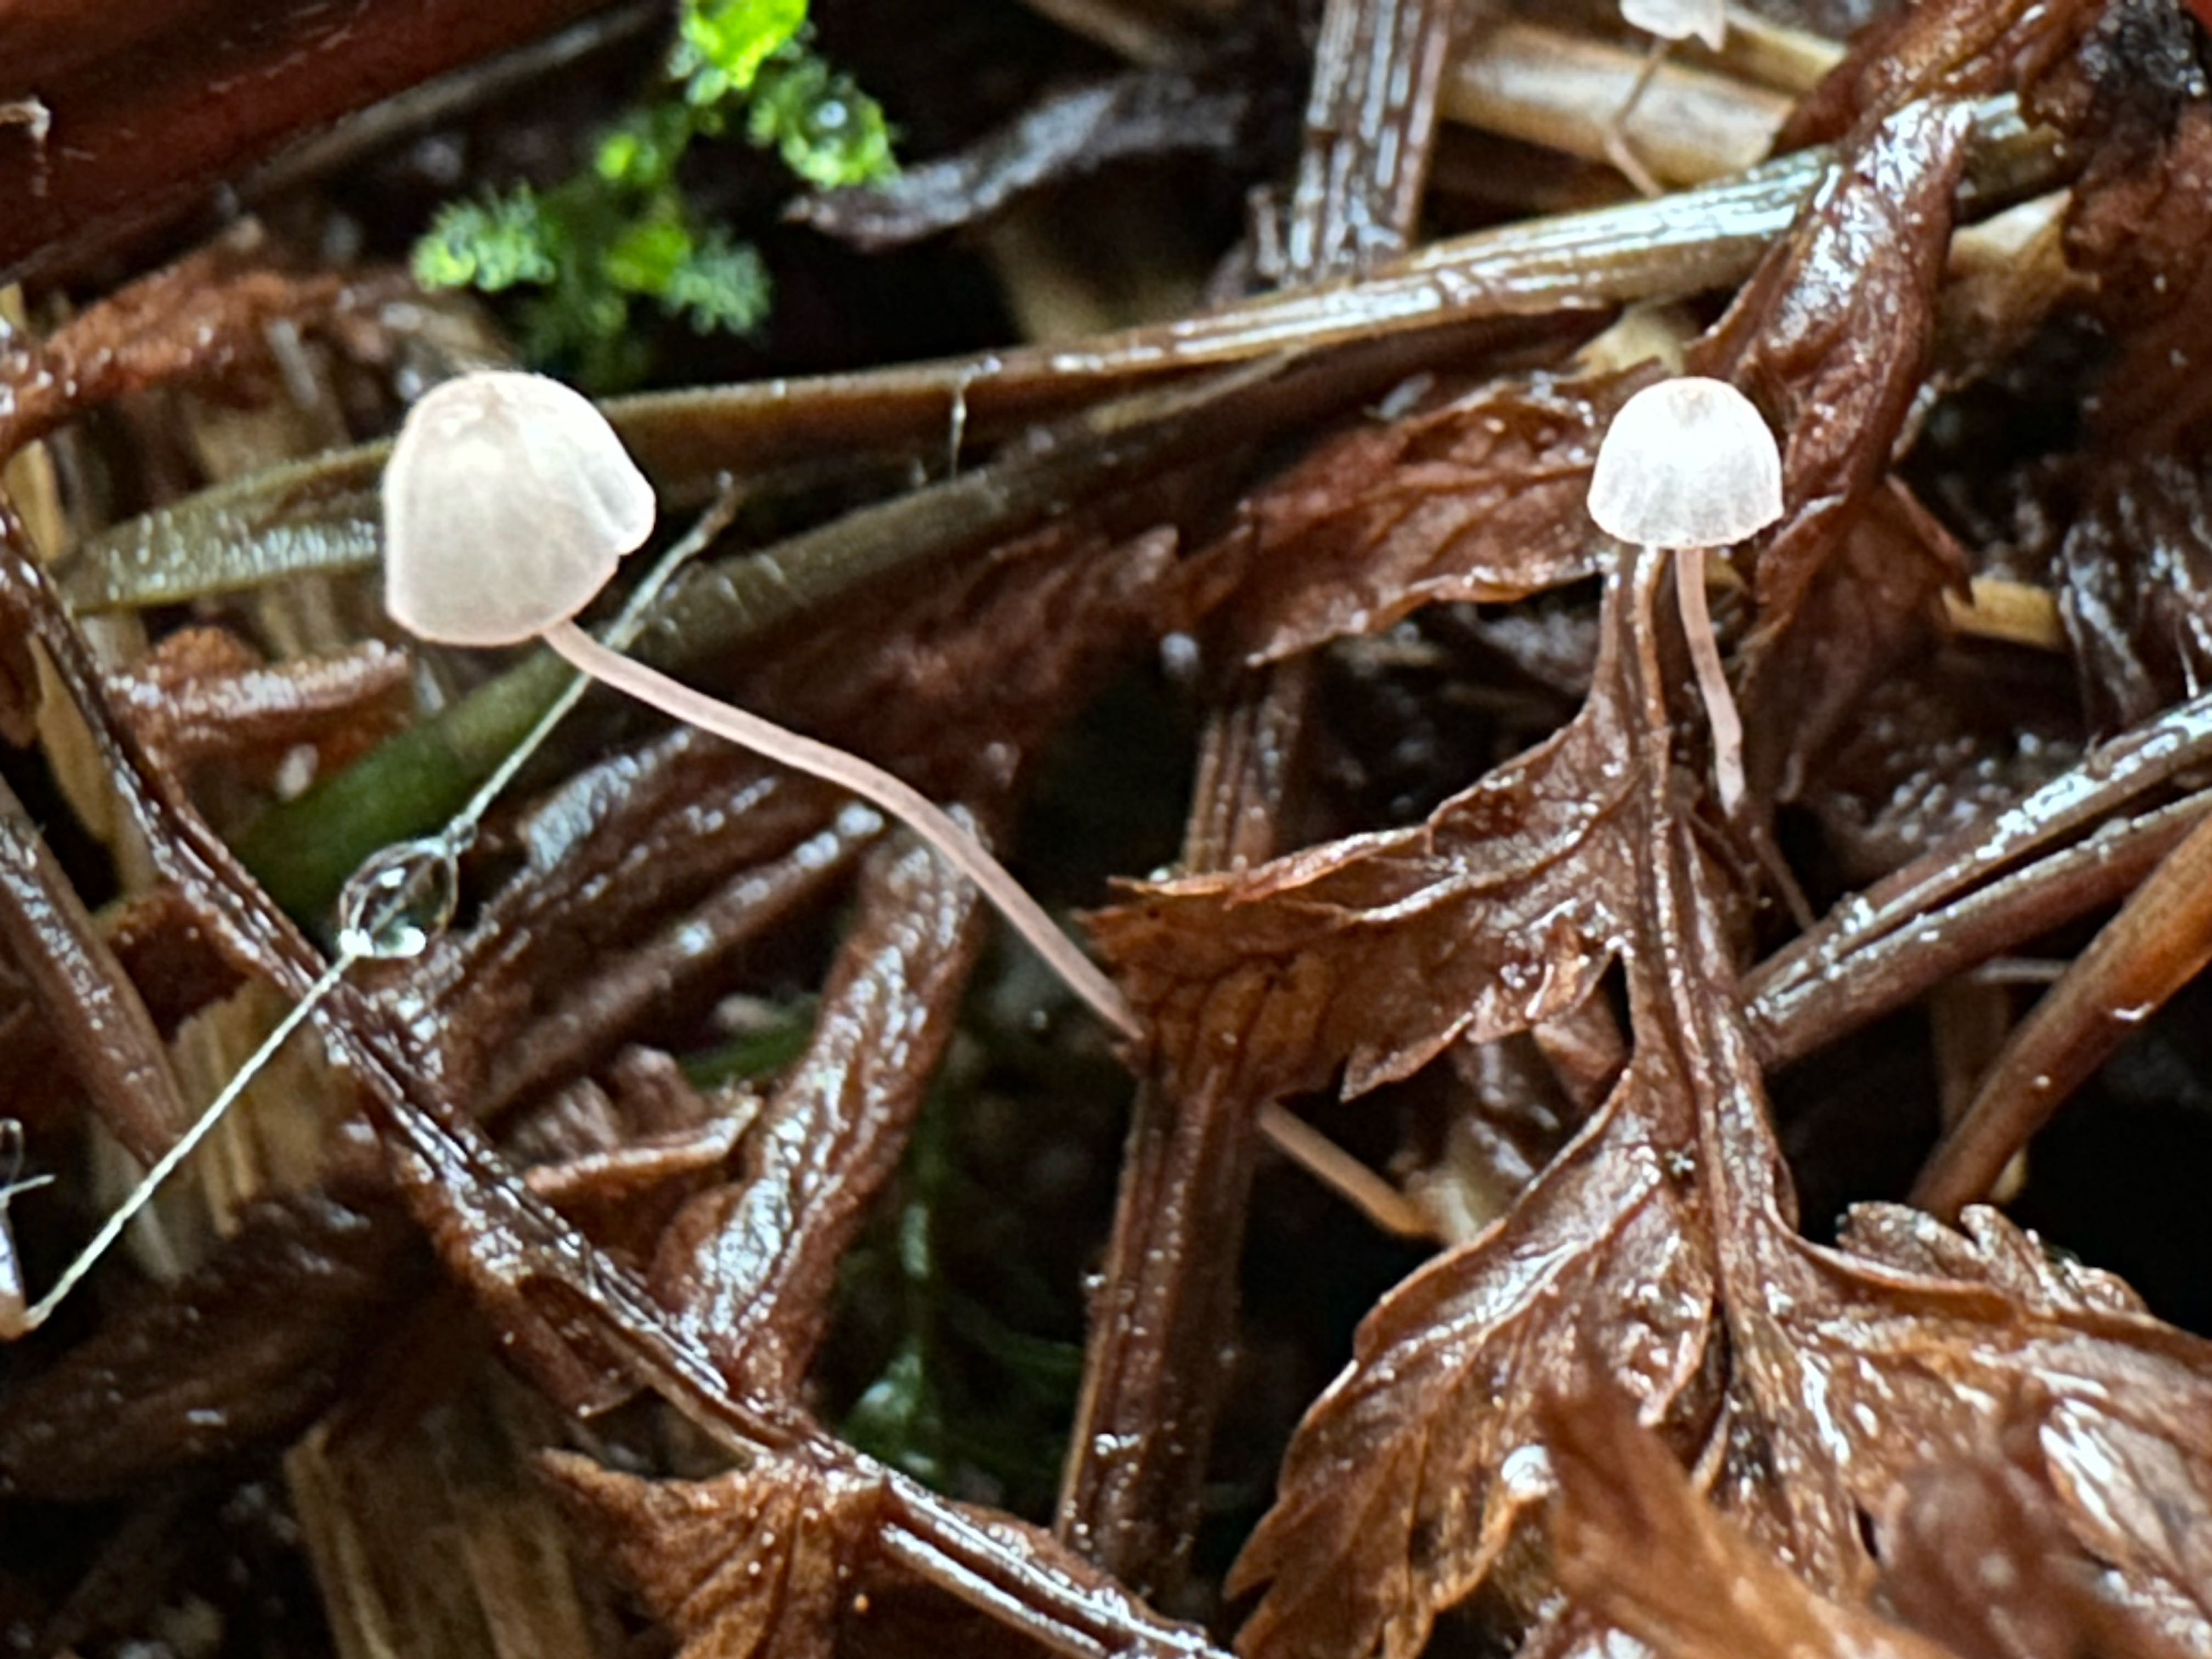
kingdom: Fungi
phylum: Basidiomycota
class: Agaricomycetes
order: Agaricales
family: Mycenaceae
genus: Mycena
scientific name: Mycena pterigena
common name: bregne-huesvamp
